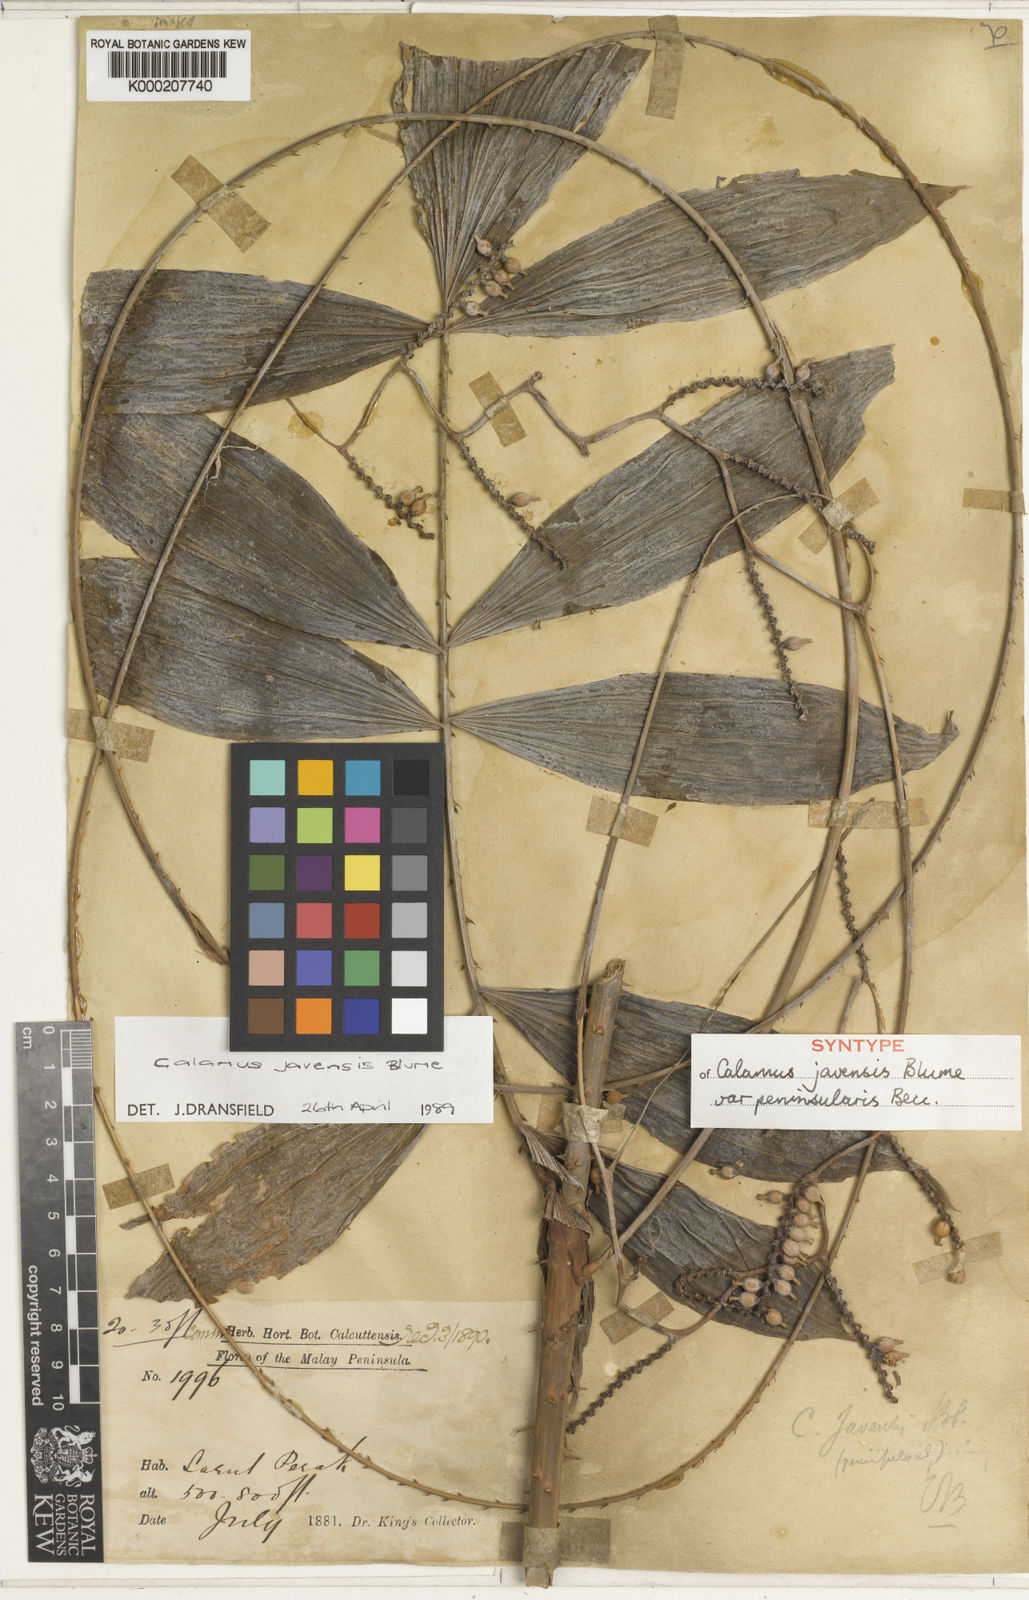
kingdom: Plantae
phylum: Tracheophyta
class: Liliopsida
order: Arecales
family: Arecaceae
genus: Calamus
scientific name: Calamus javensis
